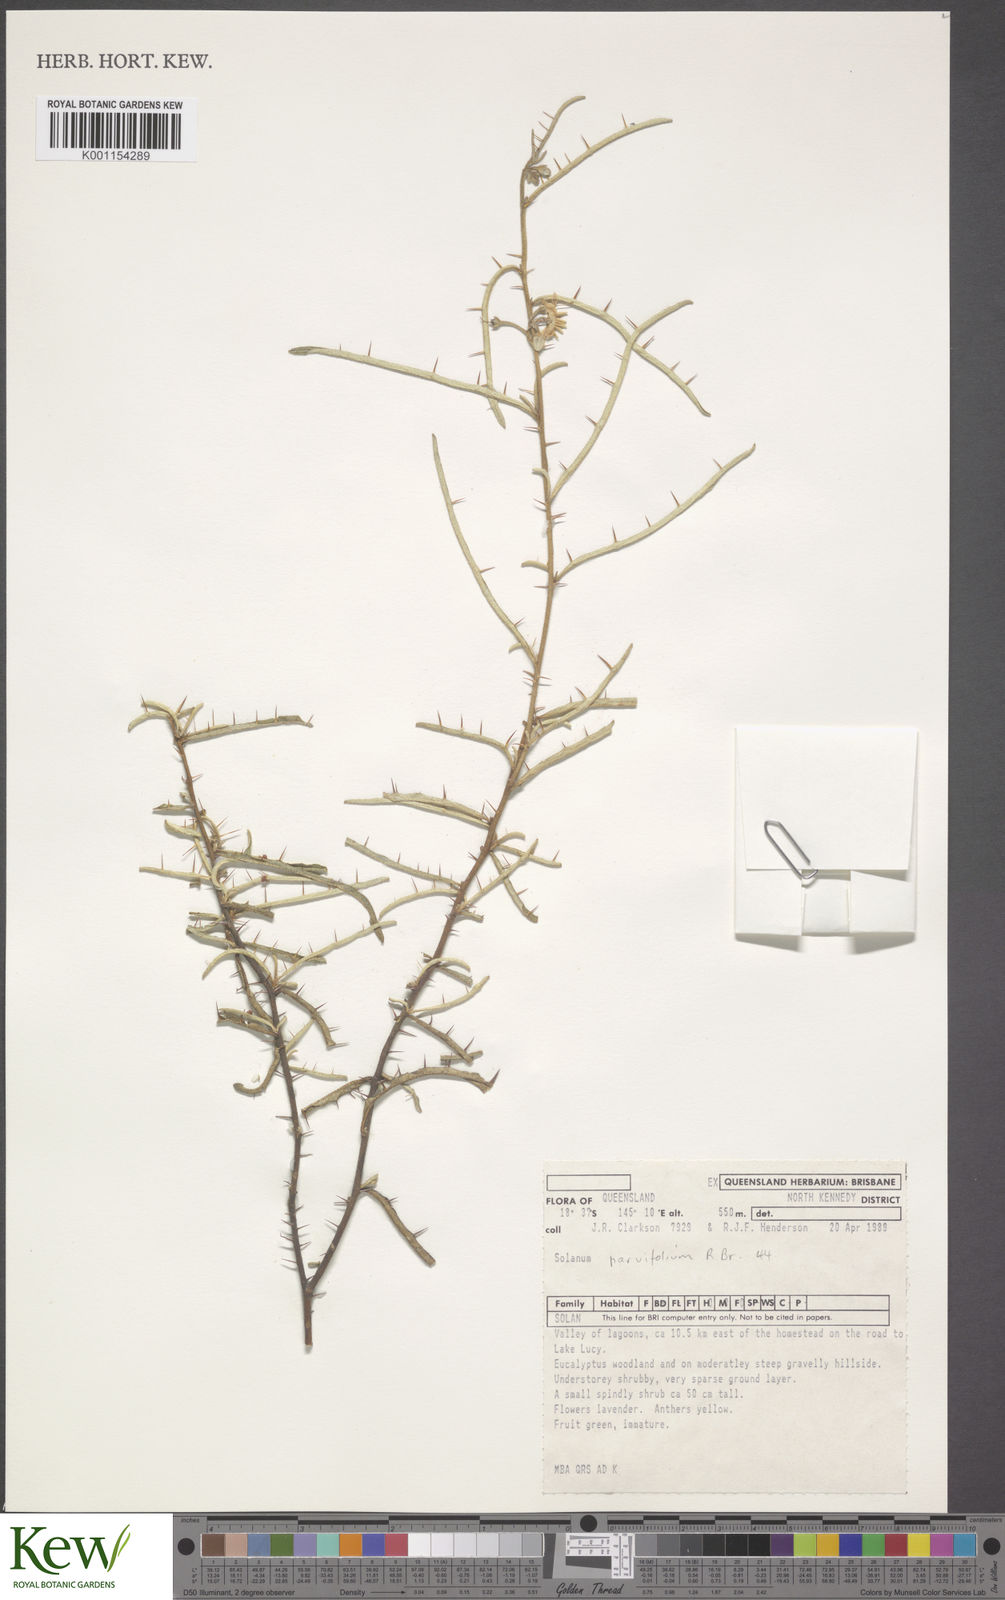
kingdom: Plantae
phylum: Tracheophyta
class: Magnoliopsida
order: Solanales
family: Solanaceae
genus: Solanum
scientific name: Solanum parvifolium
